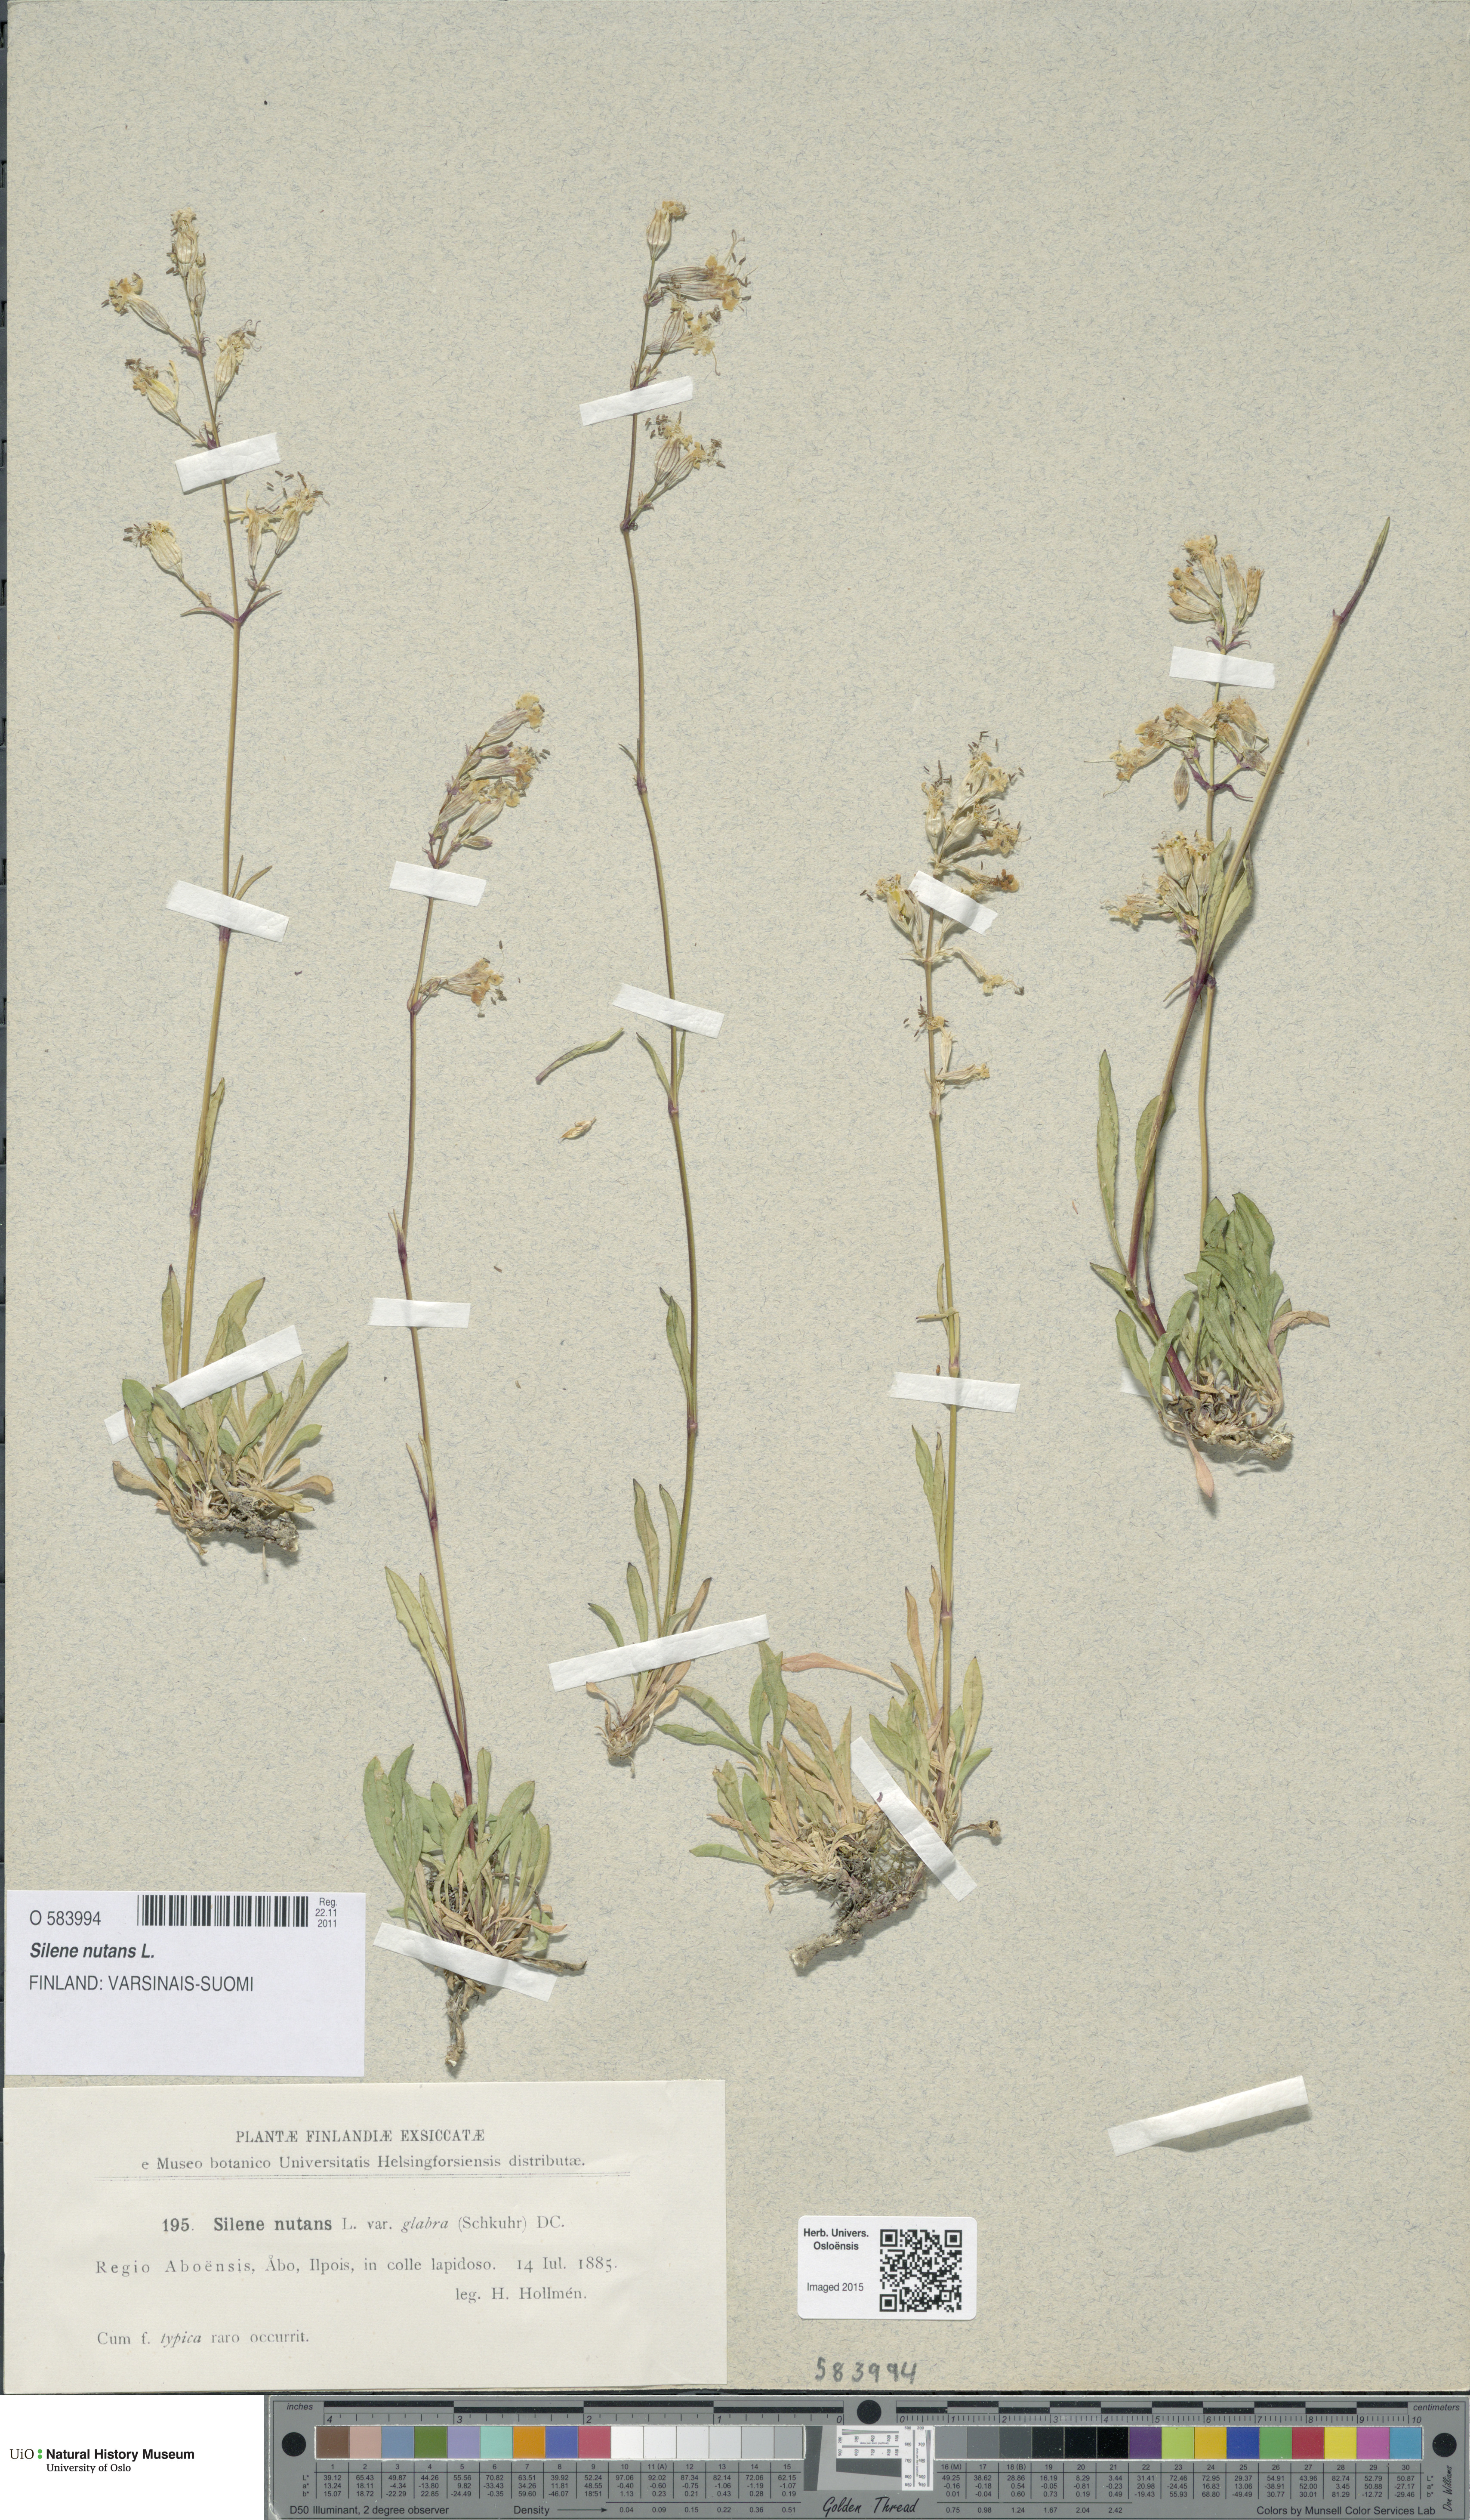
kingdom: Plantae
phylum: Tracheophyta
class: Magnoliopsida
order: Caryophyllales
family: Caryophyllaceae
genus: Silene
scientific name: Silene nutans
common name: Nottingham catchfly
